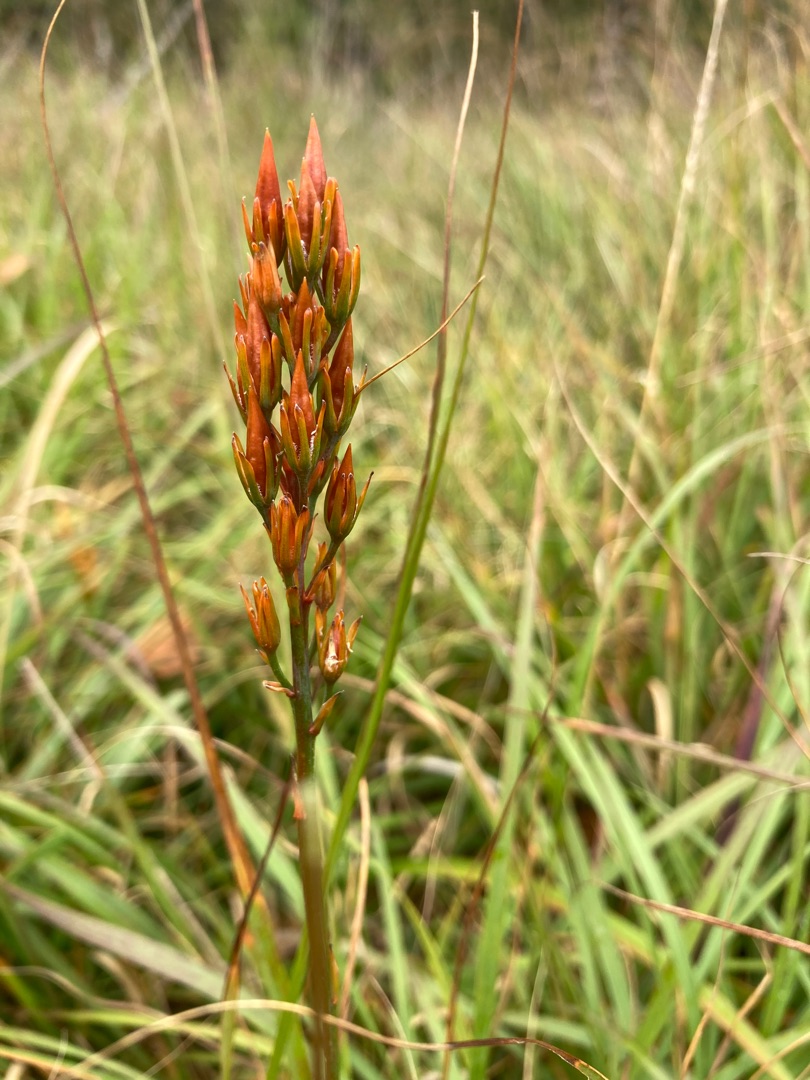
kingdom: Plantae
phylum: Tracheophyta
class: Liliopsida
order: Dioscoreales
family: Nartheciaceae
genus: Narthecium
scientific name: Narthecium ossifragum
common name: Benbræk
